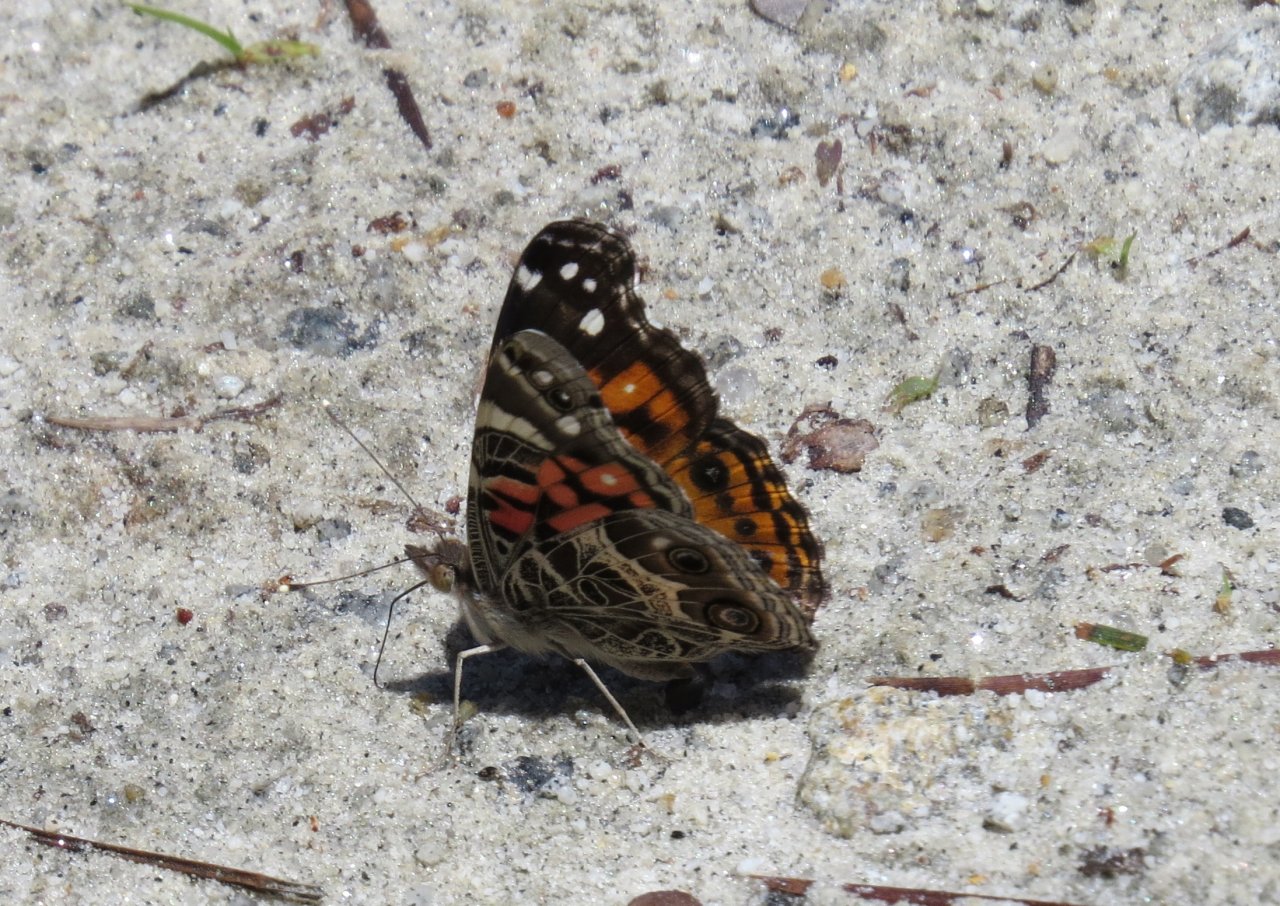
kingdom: Animalia
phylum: Arthropoda
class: Insecta
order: Lepidoptera
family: Nymphalidae
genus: Vanessa
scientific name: Vanessa virginiensis
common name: American Lady
